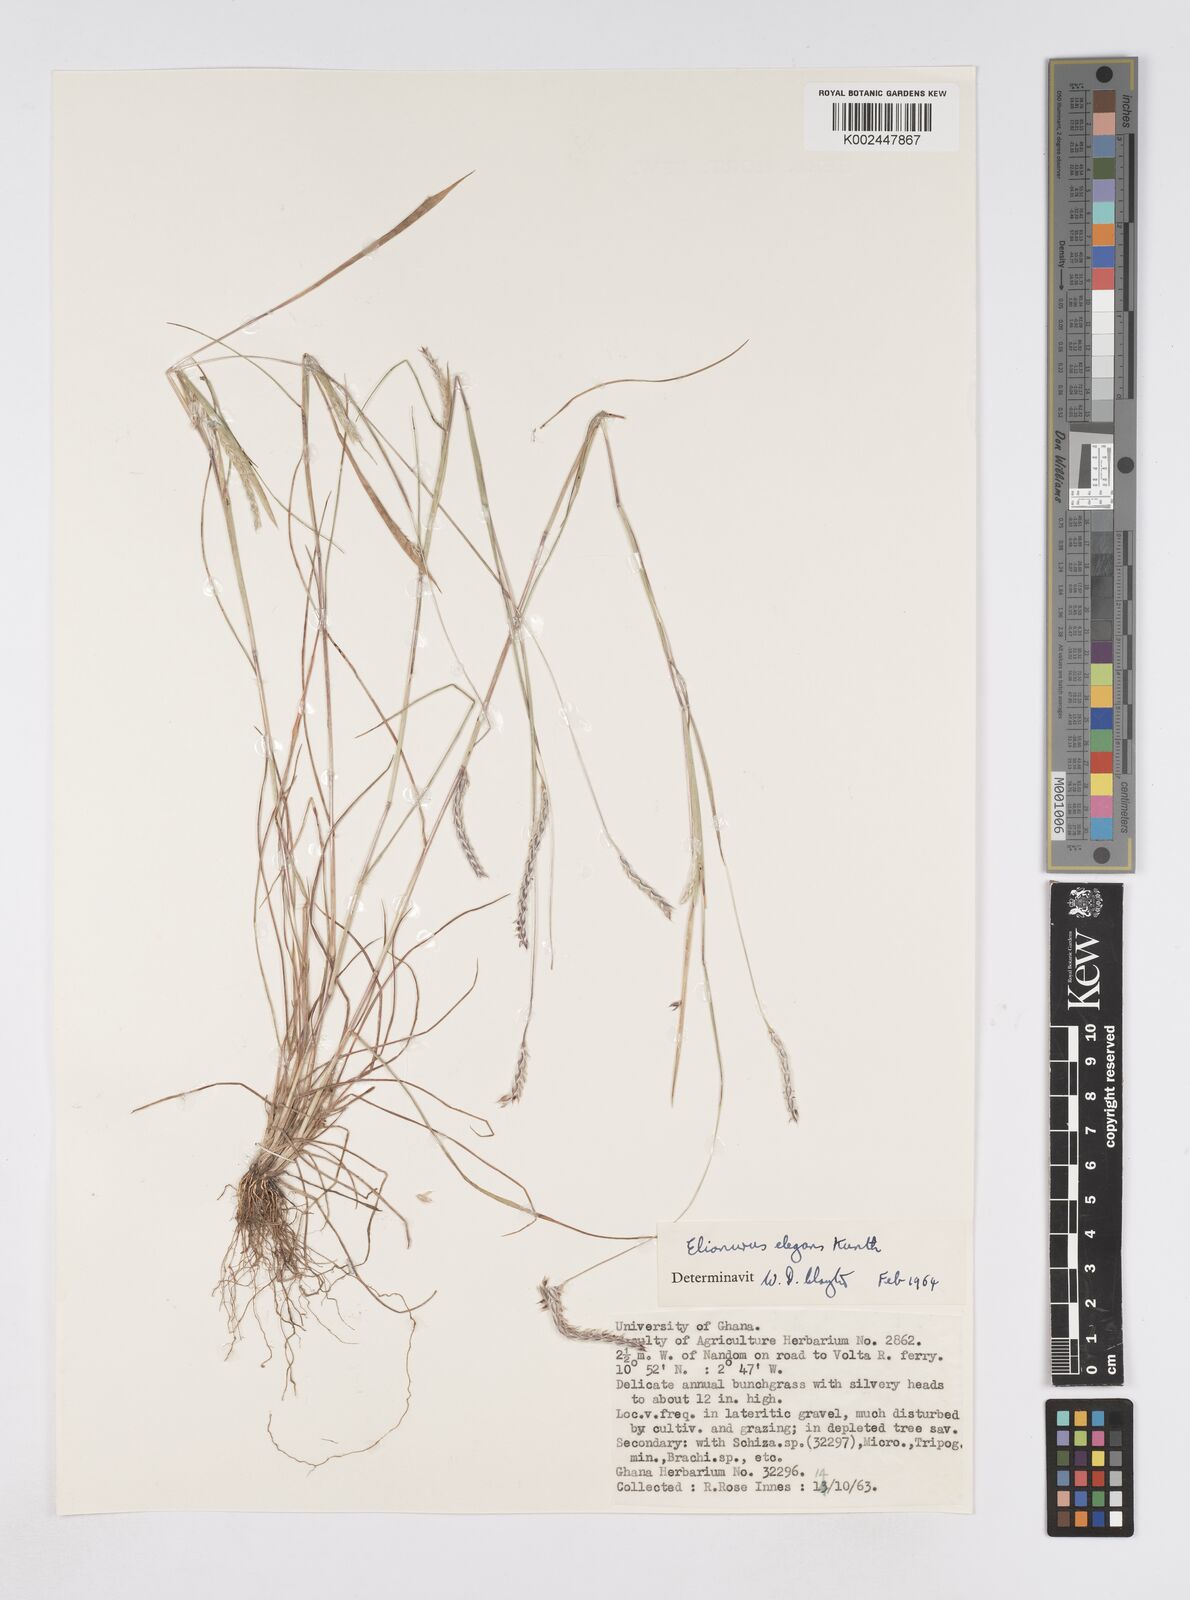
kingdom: Plantae
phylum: Tracheophyta
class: Liliopsida
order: Poales
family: Poaceae
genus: Elionurus
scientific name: Elionurus elegans
